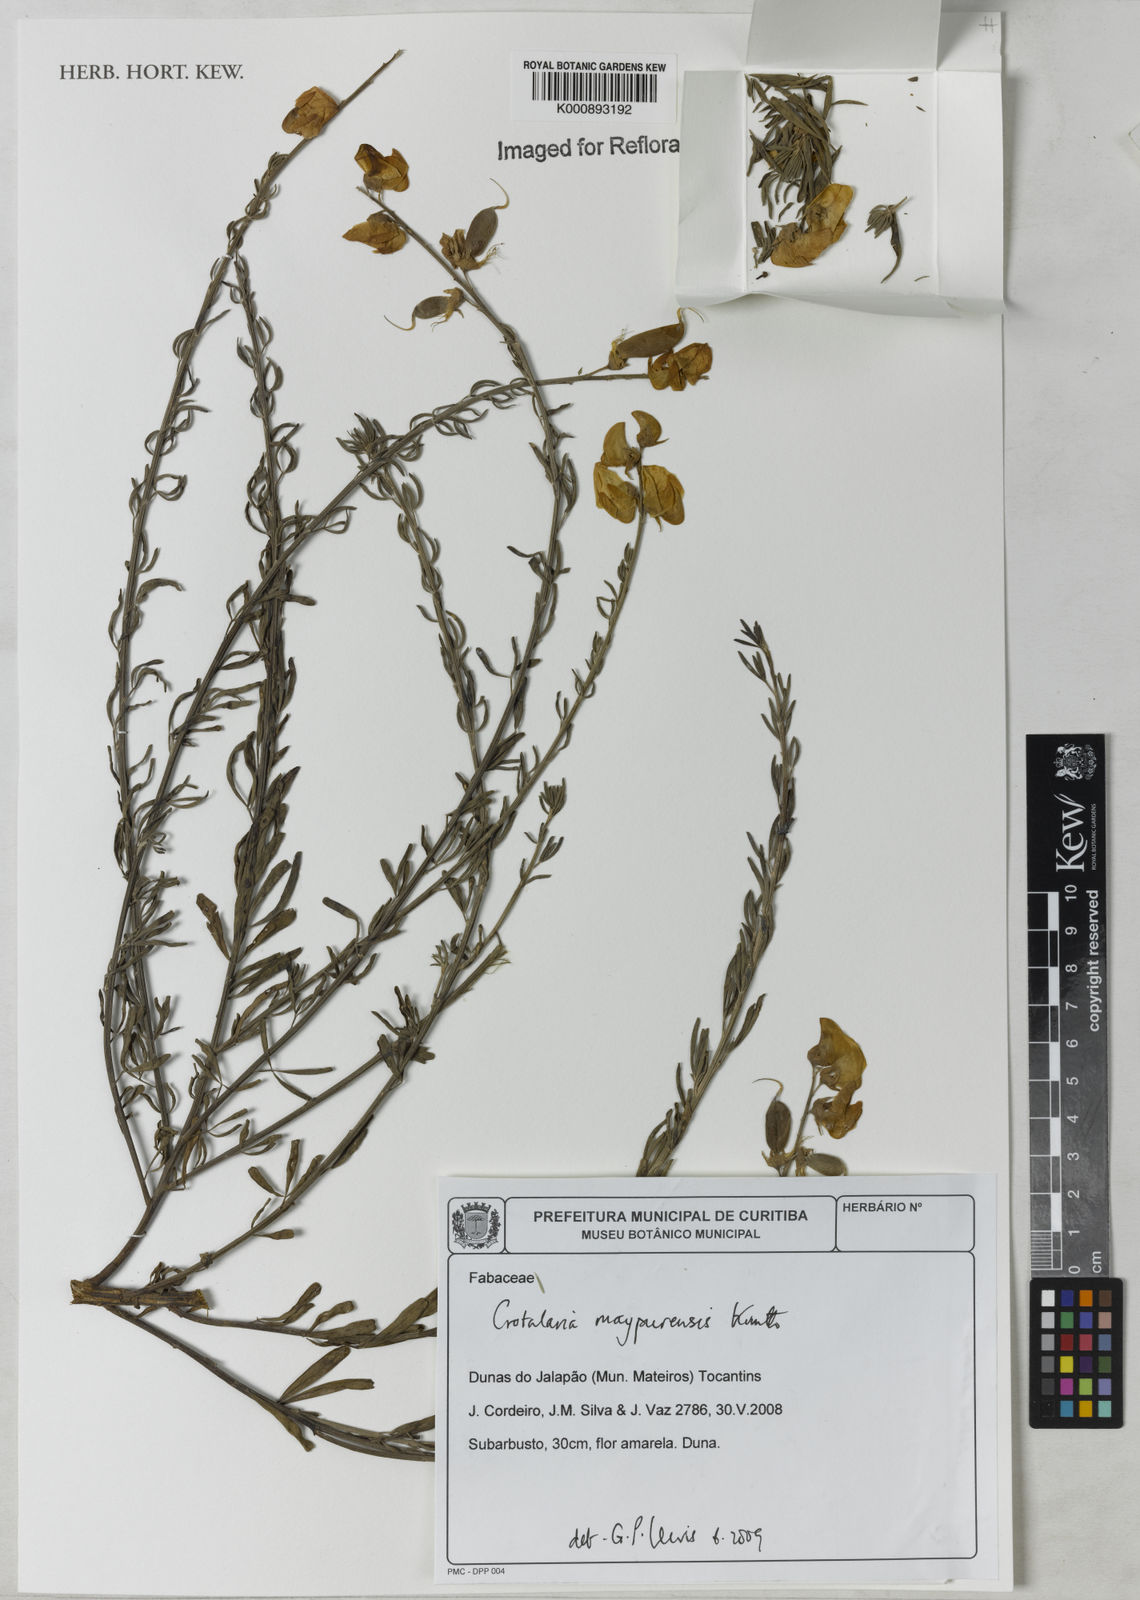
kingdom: Plantae
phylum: Tracheophyta
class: Magnoliopsida
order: Fabales
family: Fabaceae
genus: Crotalaria
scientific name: Crotalaria maypurensis
